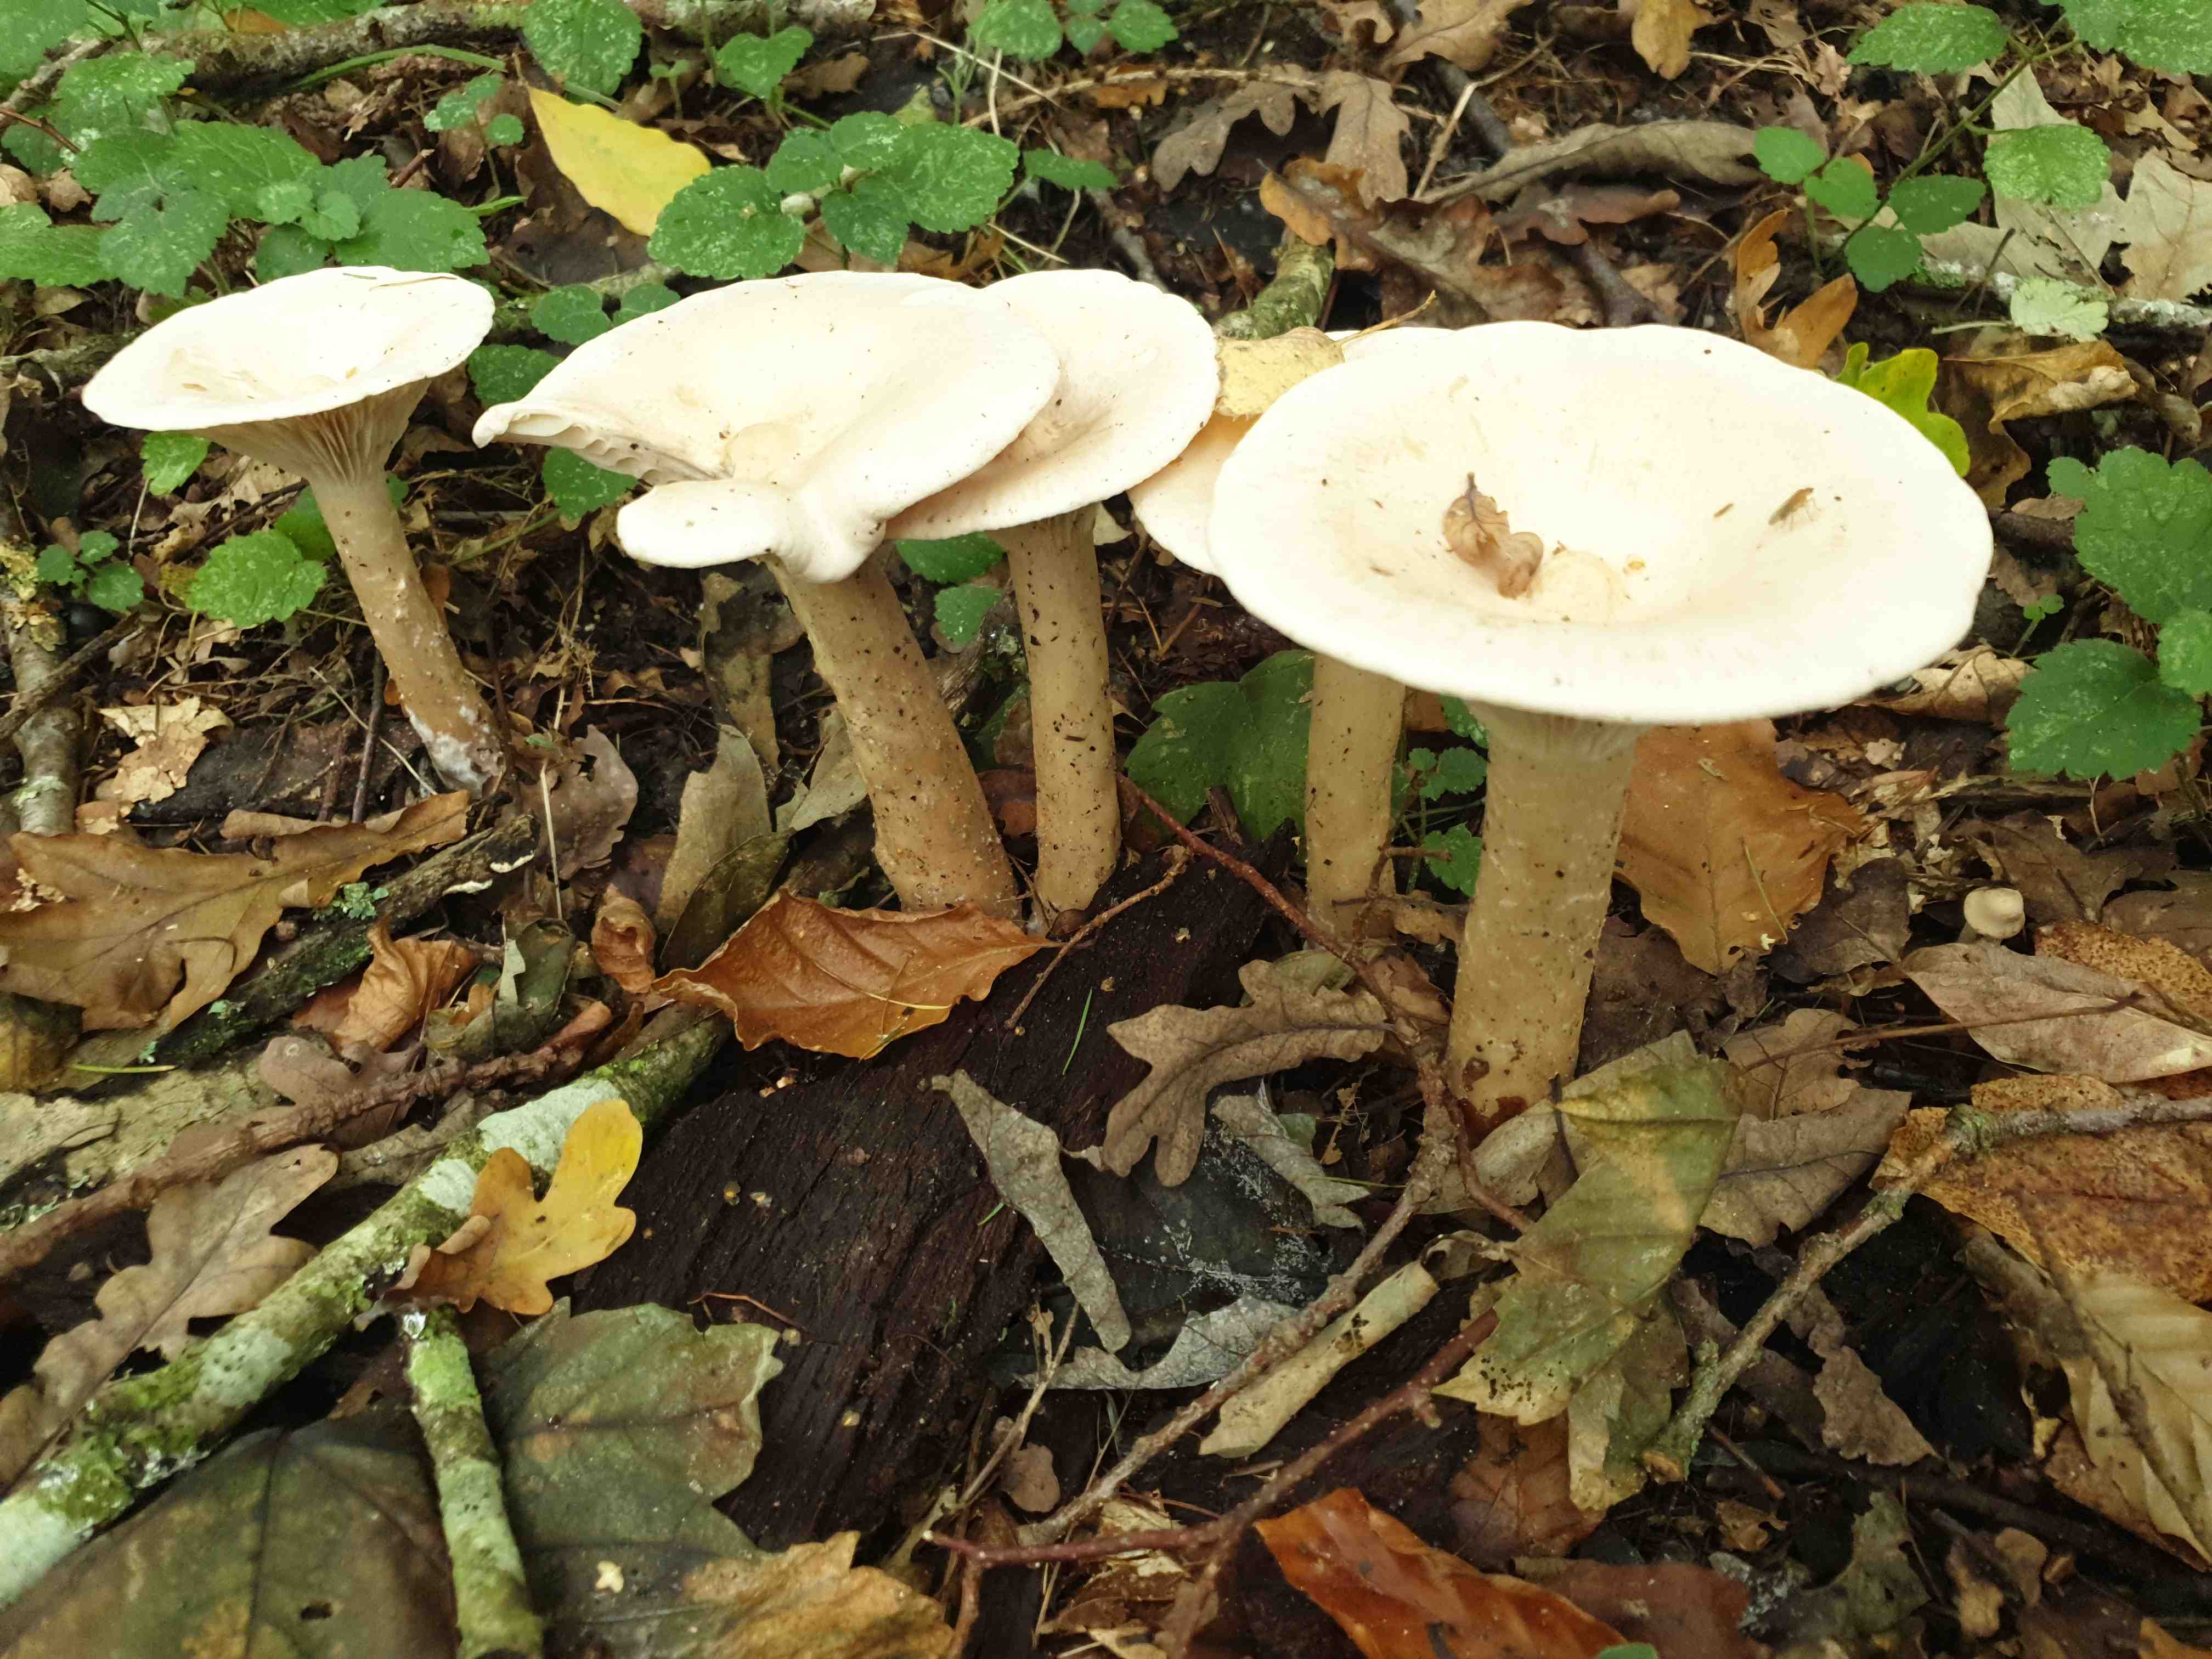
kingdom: Fungi
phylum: Basidiomycota
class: Agaricomycetes
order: Agaricales
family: Tricholomataceae
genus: Infundibulicybe
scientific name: Infundibulicybe geotropa
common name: stor tragthat
